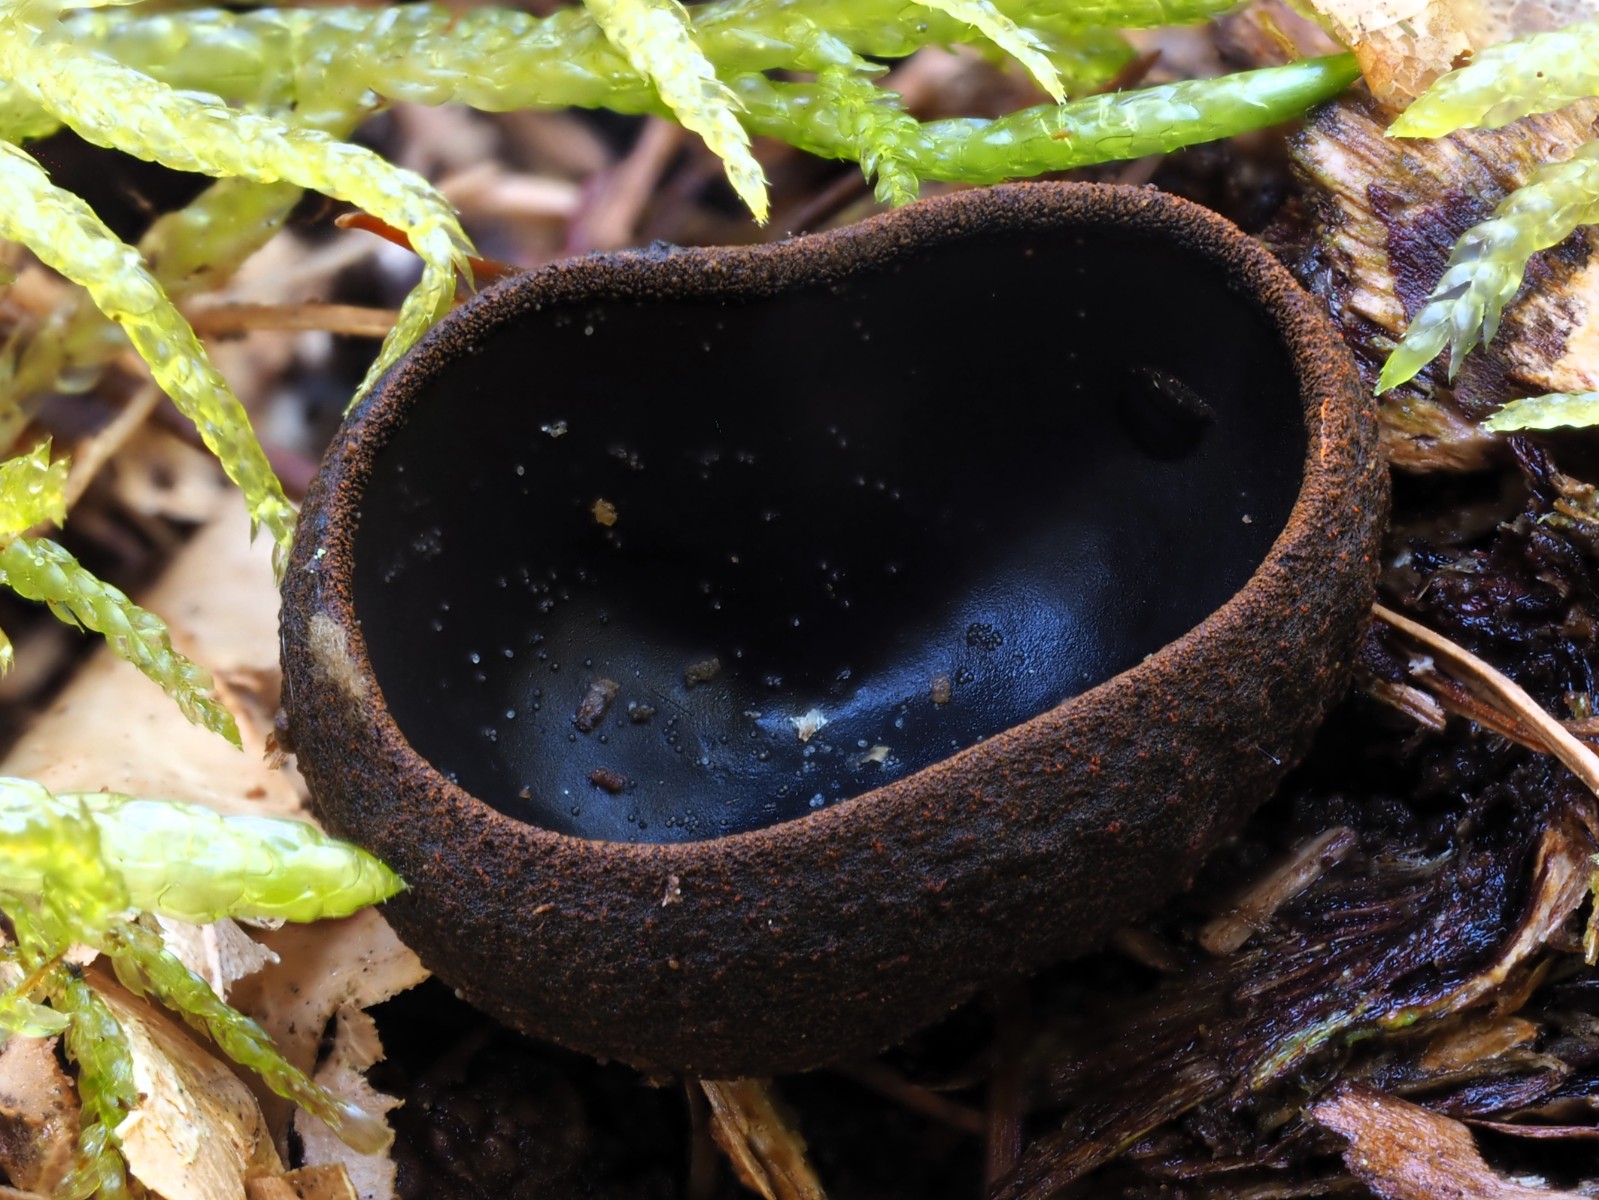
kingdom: Fungi
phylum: Ascomycota
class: Pezizomycetes
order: Pezizales
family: Sarcosomataceae
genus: Plectania
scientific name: Plectania melastoma
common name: rustbæger
